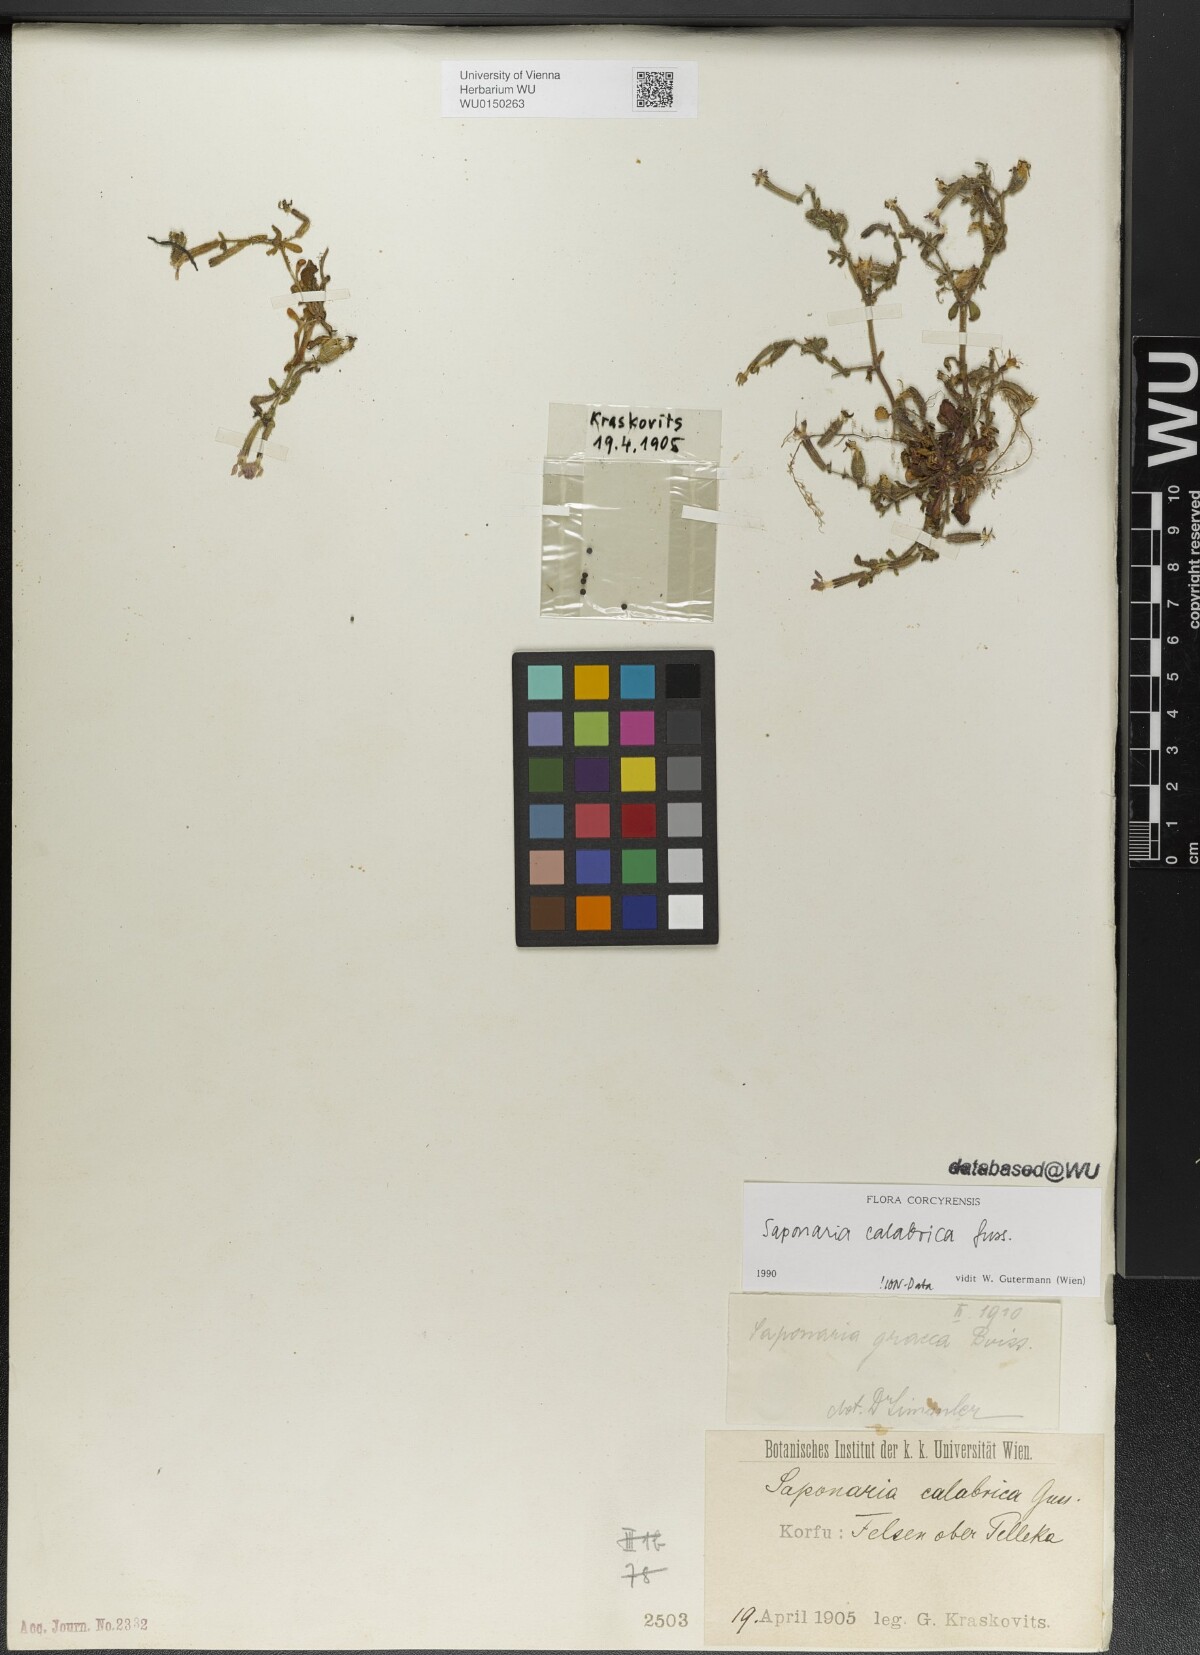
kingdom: Plantae
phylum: Tracheophyta
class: Magnoliopsida
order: Caryophyllales
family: Caryophyllaceae
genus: Saponaria
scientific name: Saponaria calabrica
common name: Adriatic soapwort
